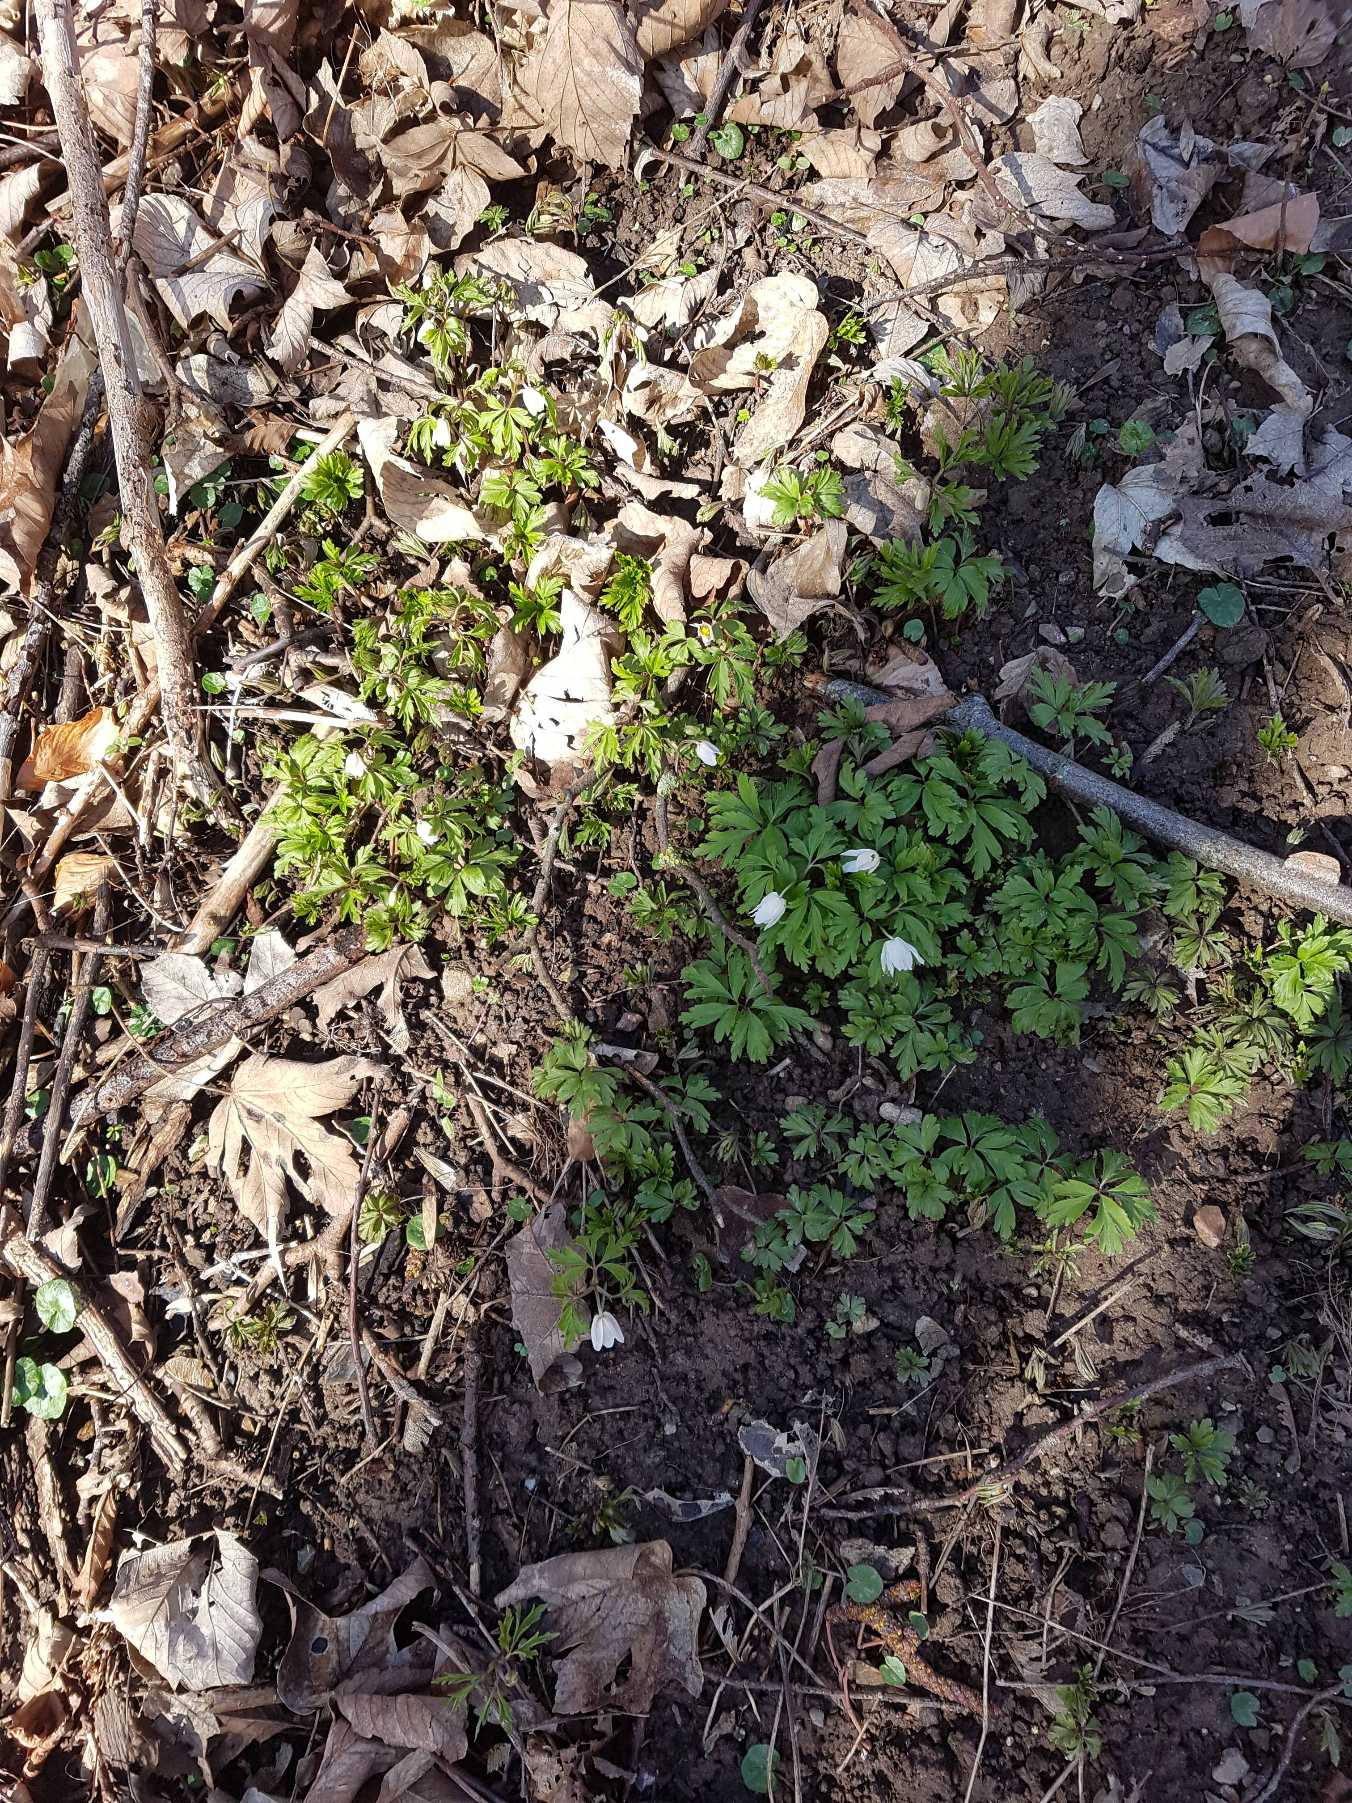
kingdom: Plantae
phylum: Tracheophyta
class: Magnoliopsida
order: Ranunculales
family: Ranunculaceae
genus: Anemone
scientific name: Anemone nemorosa
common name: Hvid anemone
